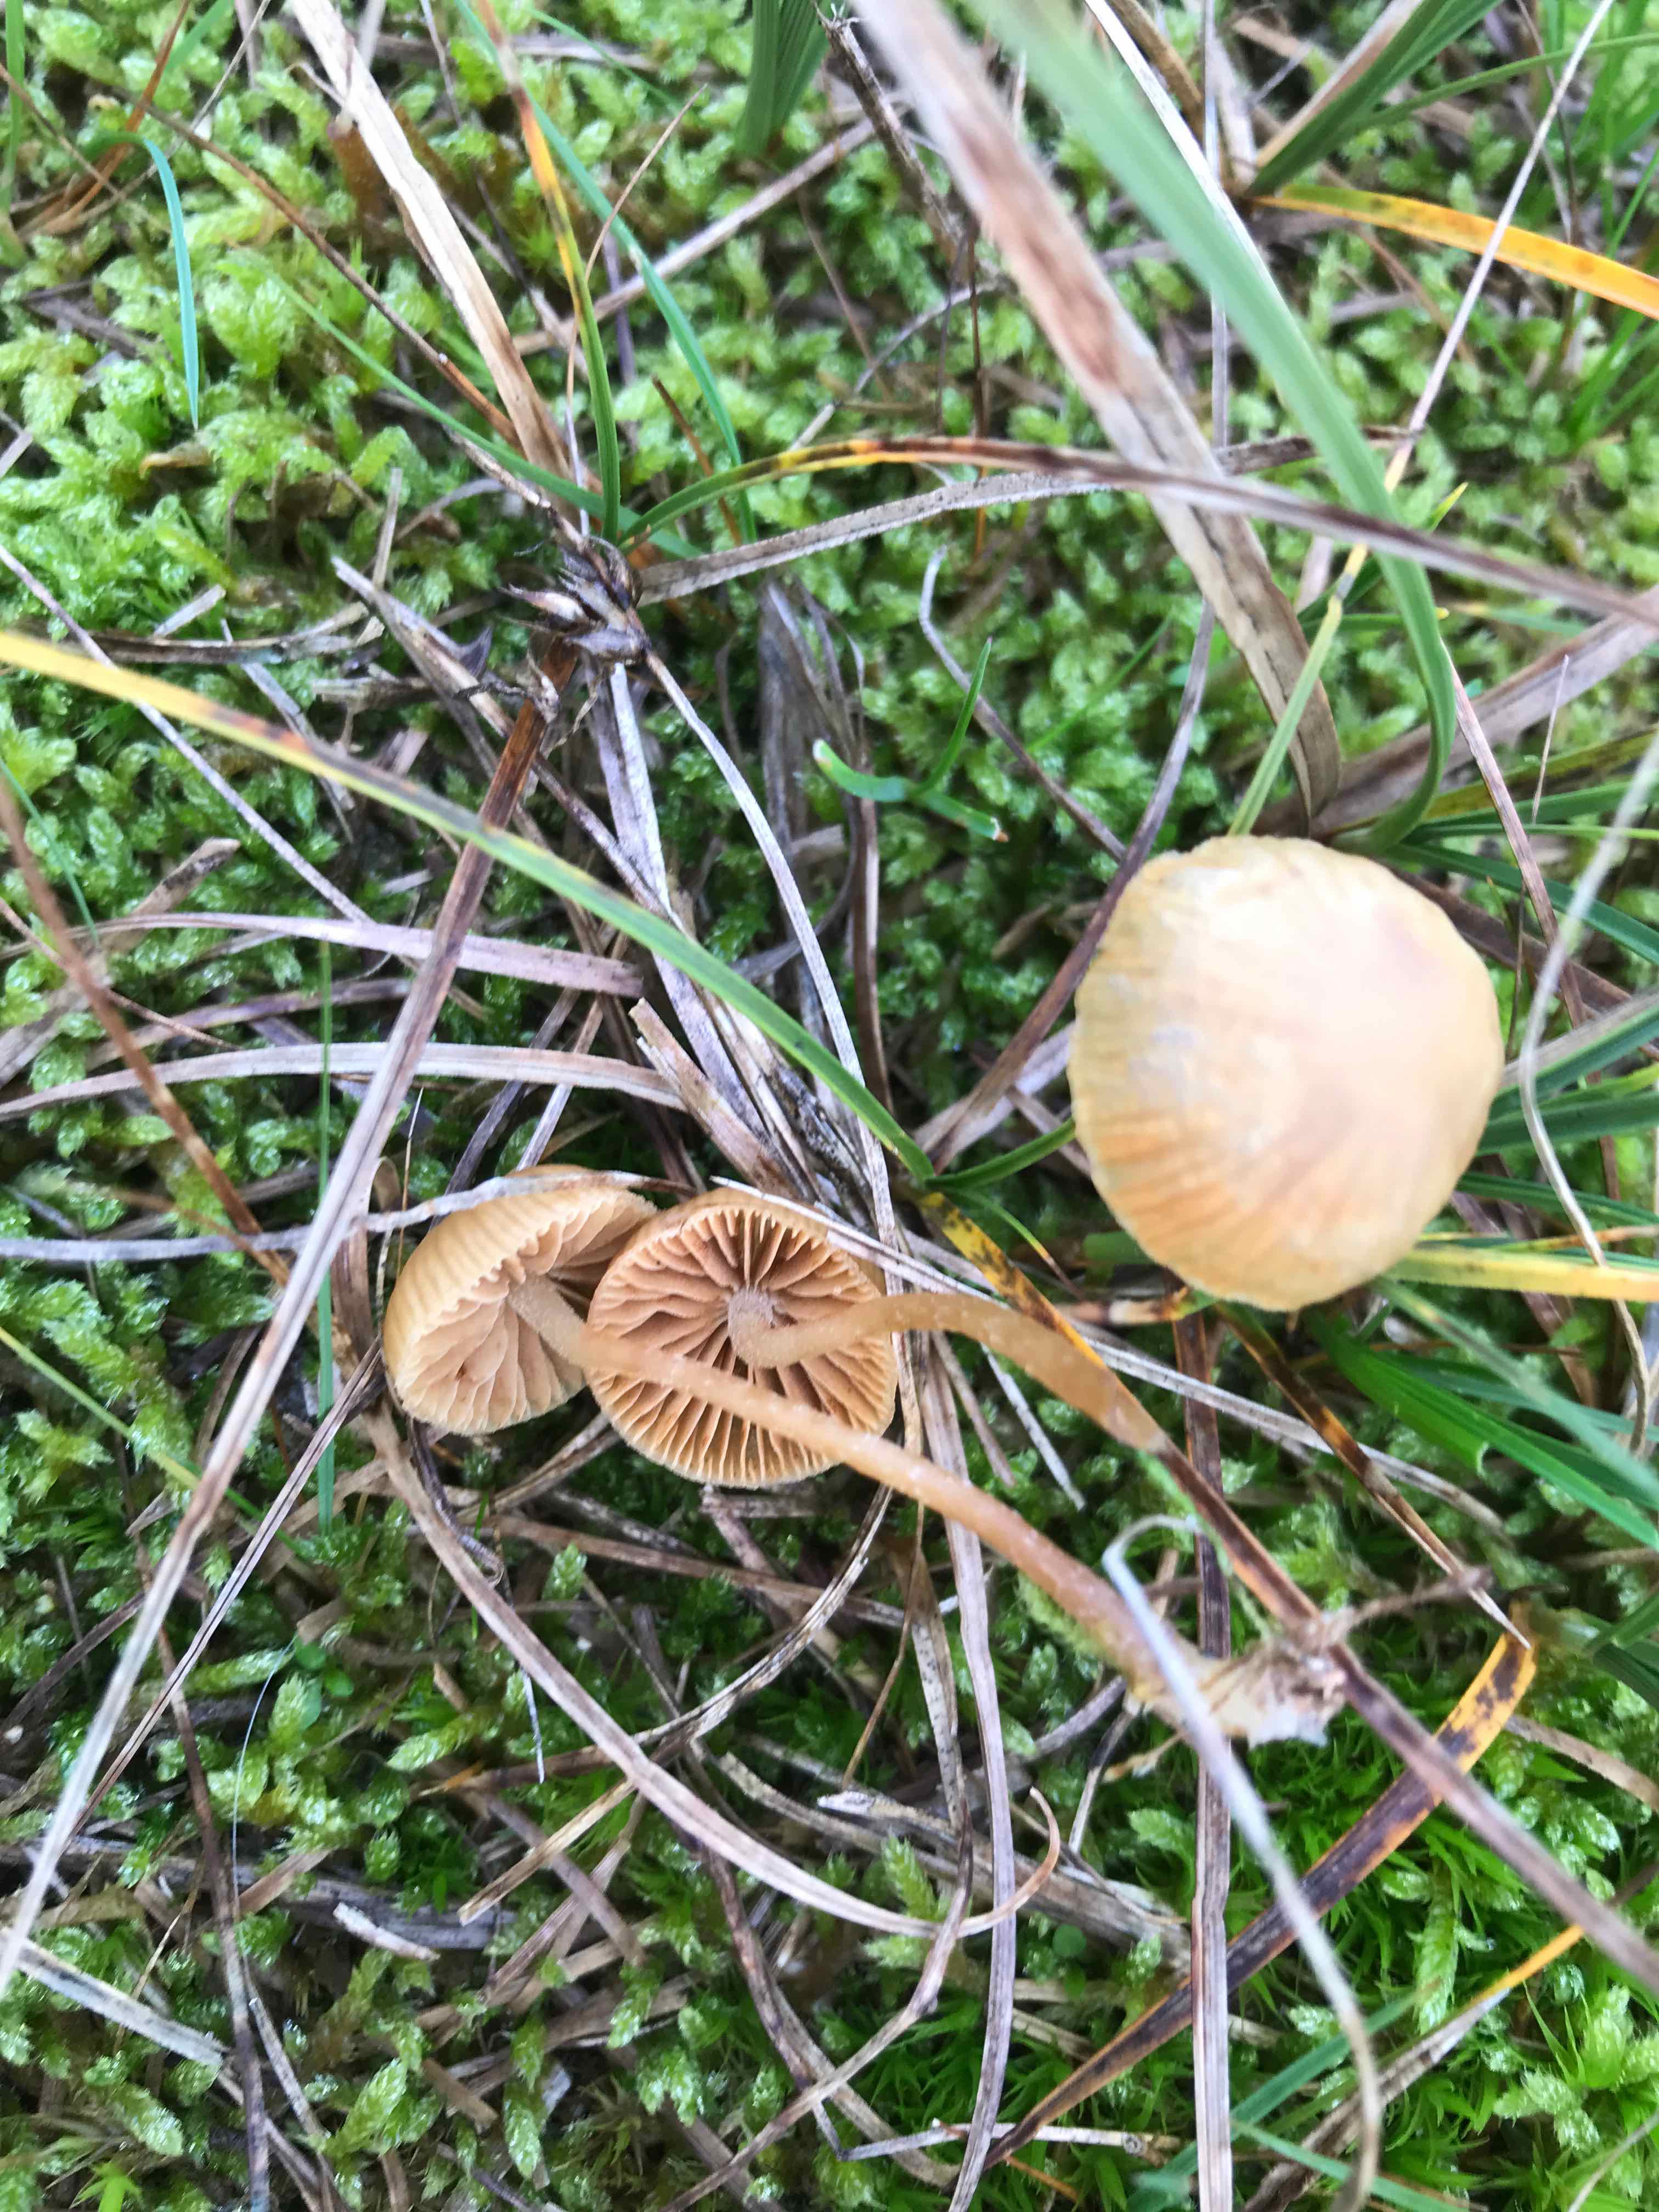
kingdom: Fungi
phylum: Basidiomycota
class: Agaricomycetes
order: Agaricales
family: Hymenogastraceae
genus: Galerina
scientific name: Galerina
